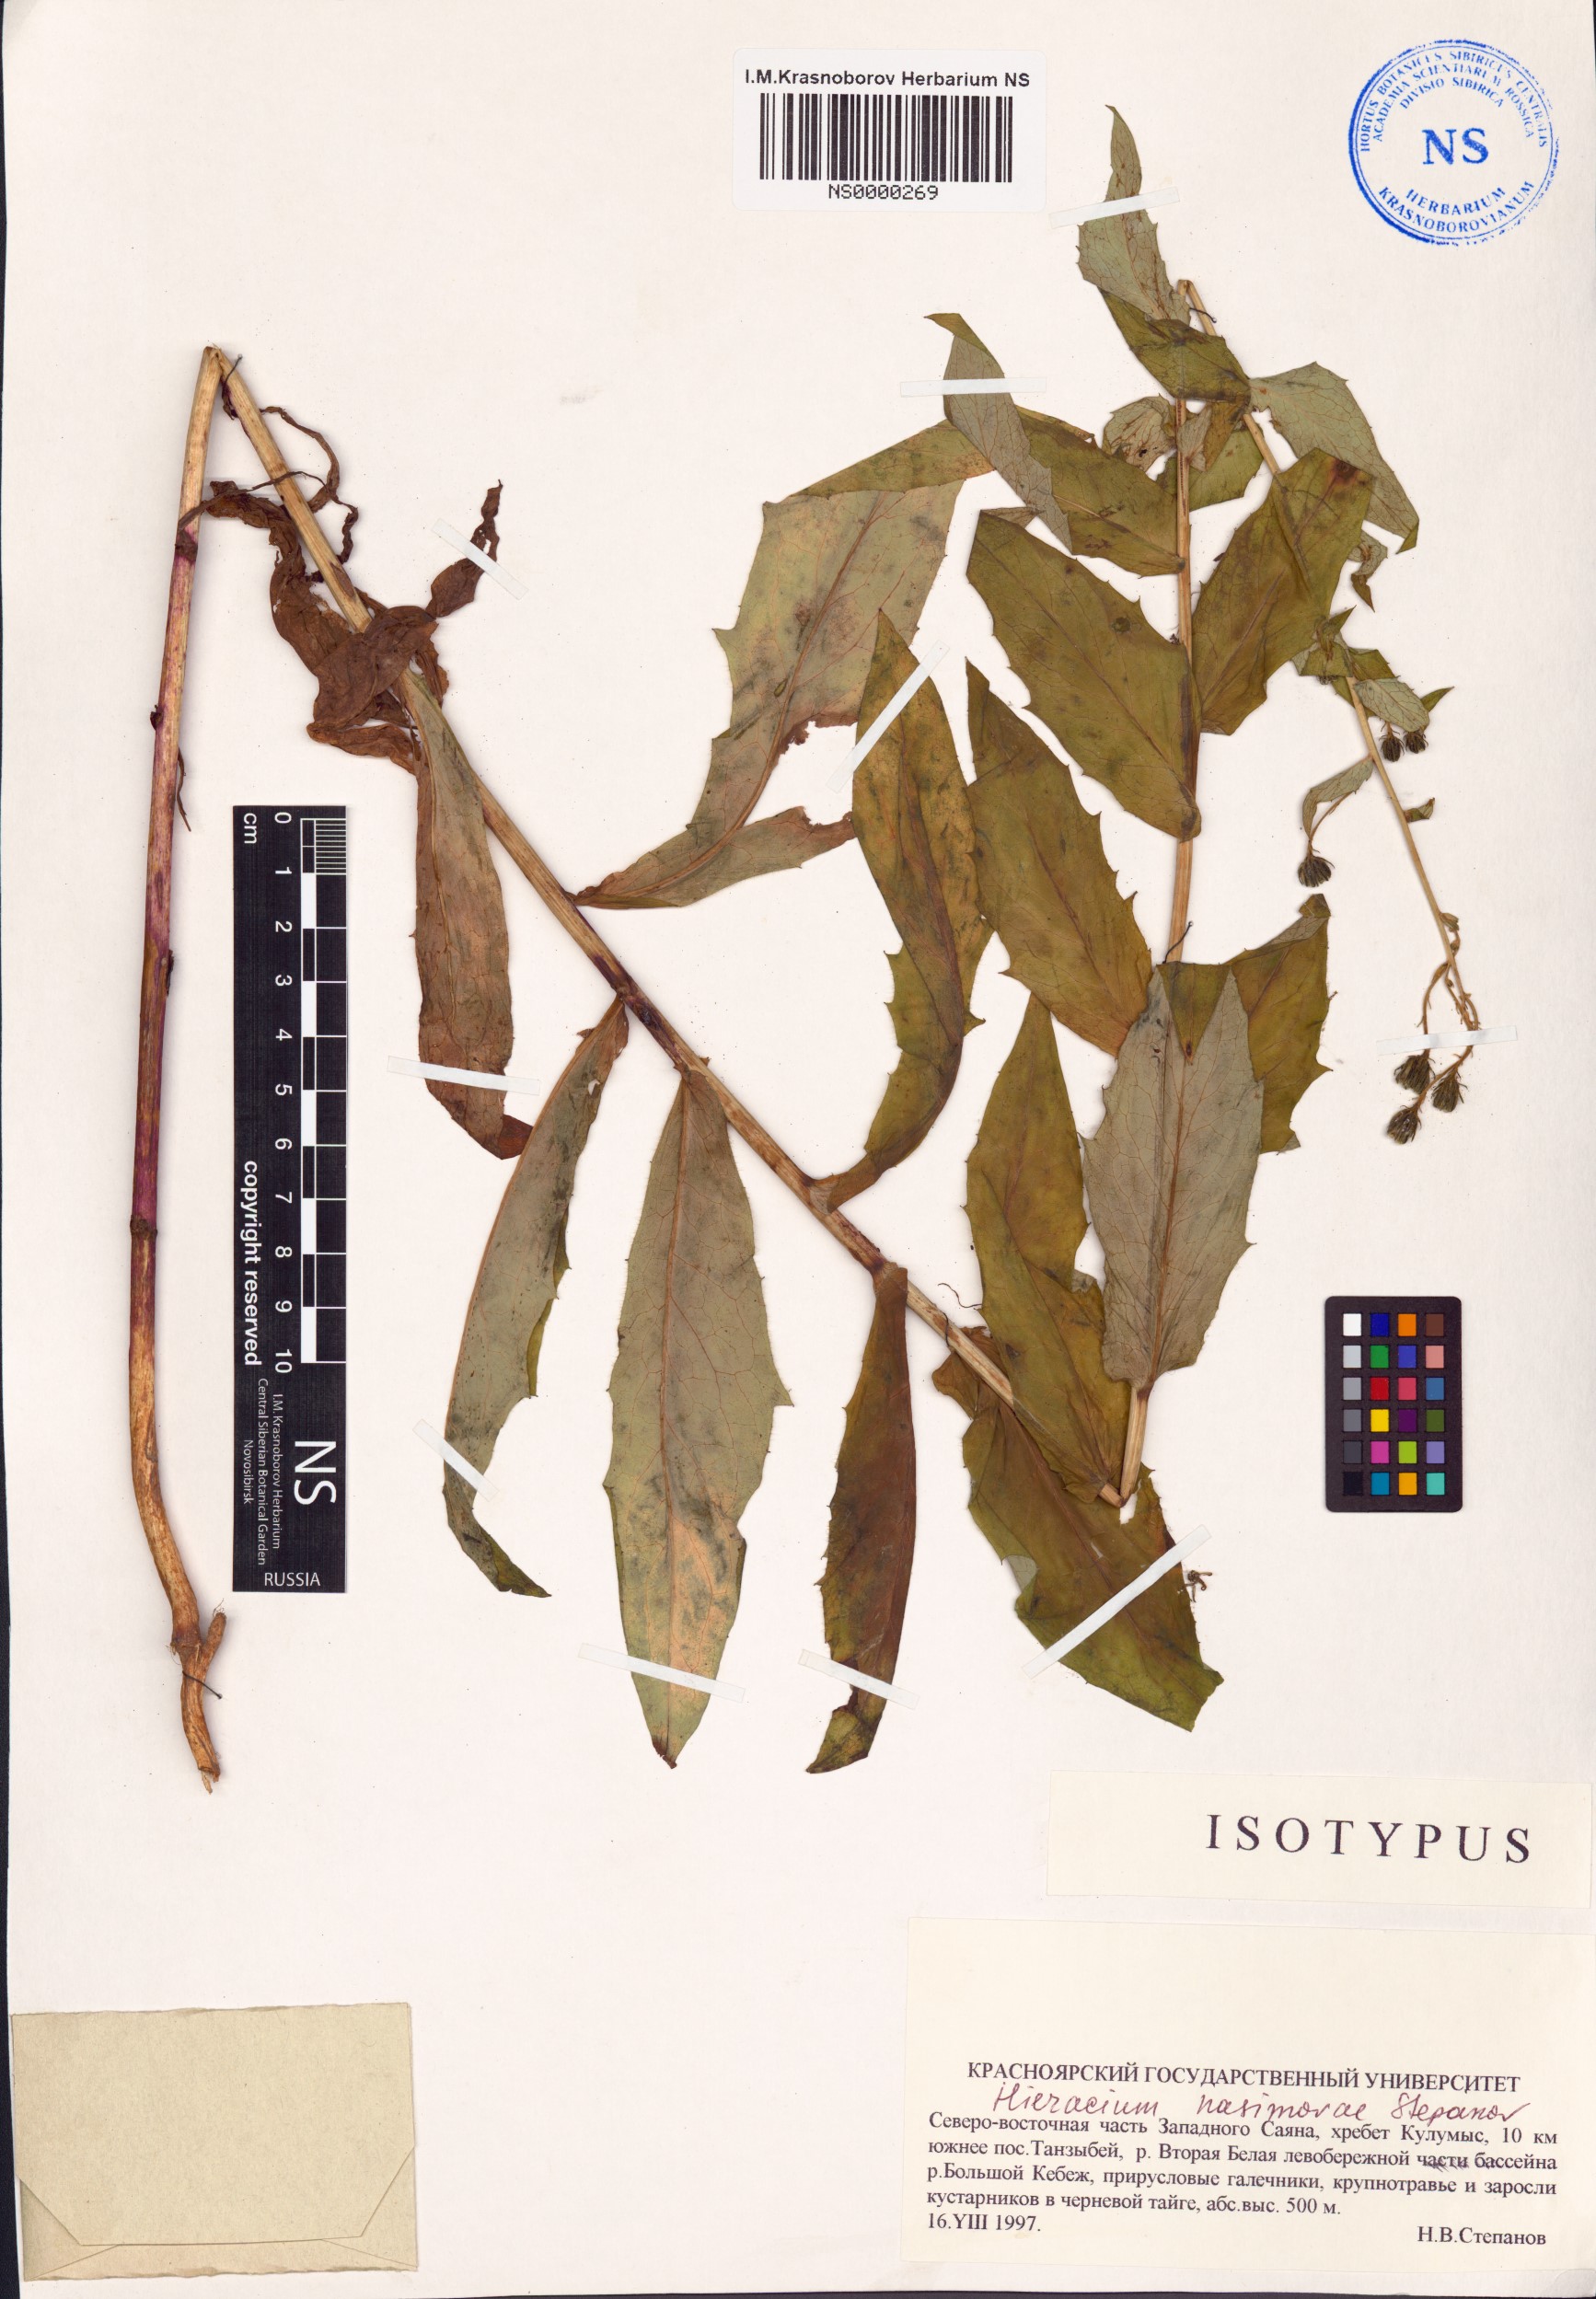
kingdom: Plantae
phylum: Tracheophyta
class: Magnoliopsida
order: Asterales
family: Asteraceae
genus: Hieracium
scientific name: Hieracium nasimovae
